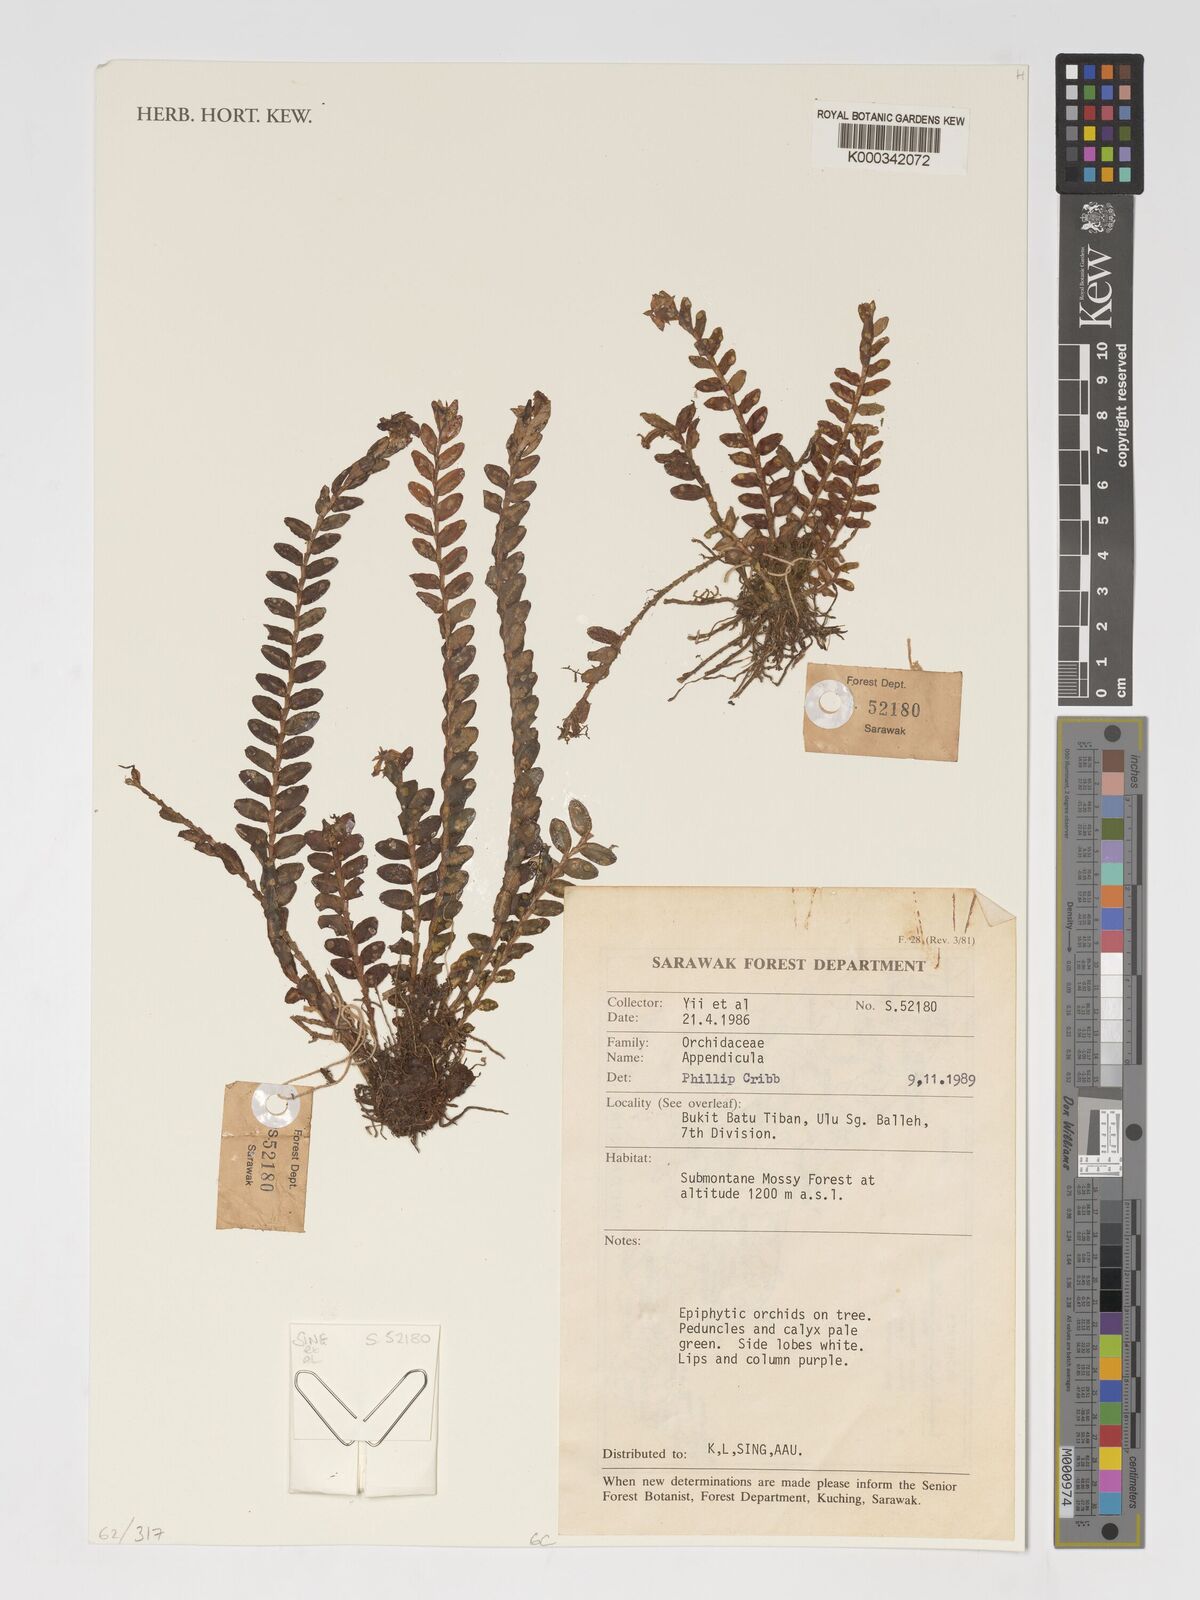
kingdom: Plantae
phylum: Tracheophyta
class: Liliopsida
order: Asparagales
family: Orchidaceae
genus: Appendicula
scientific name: Appendicula
